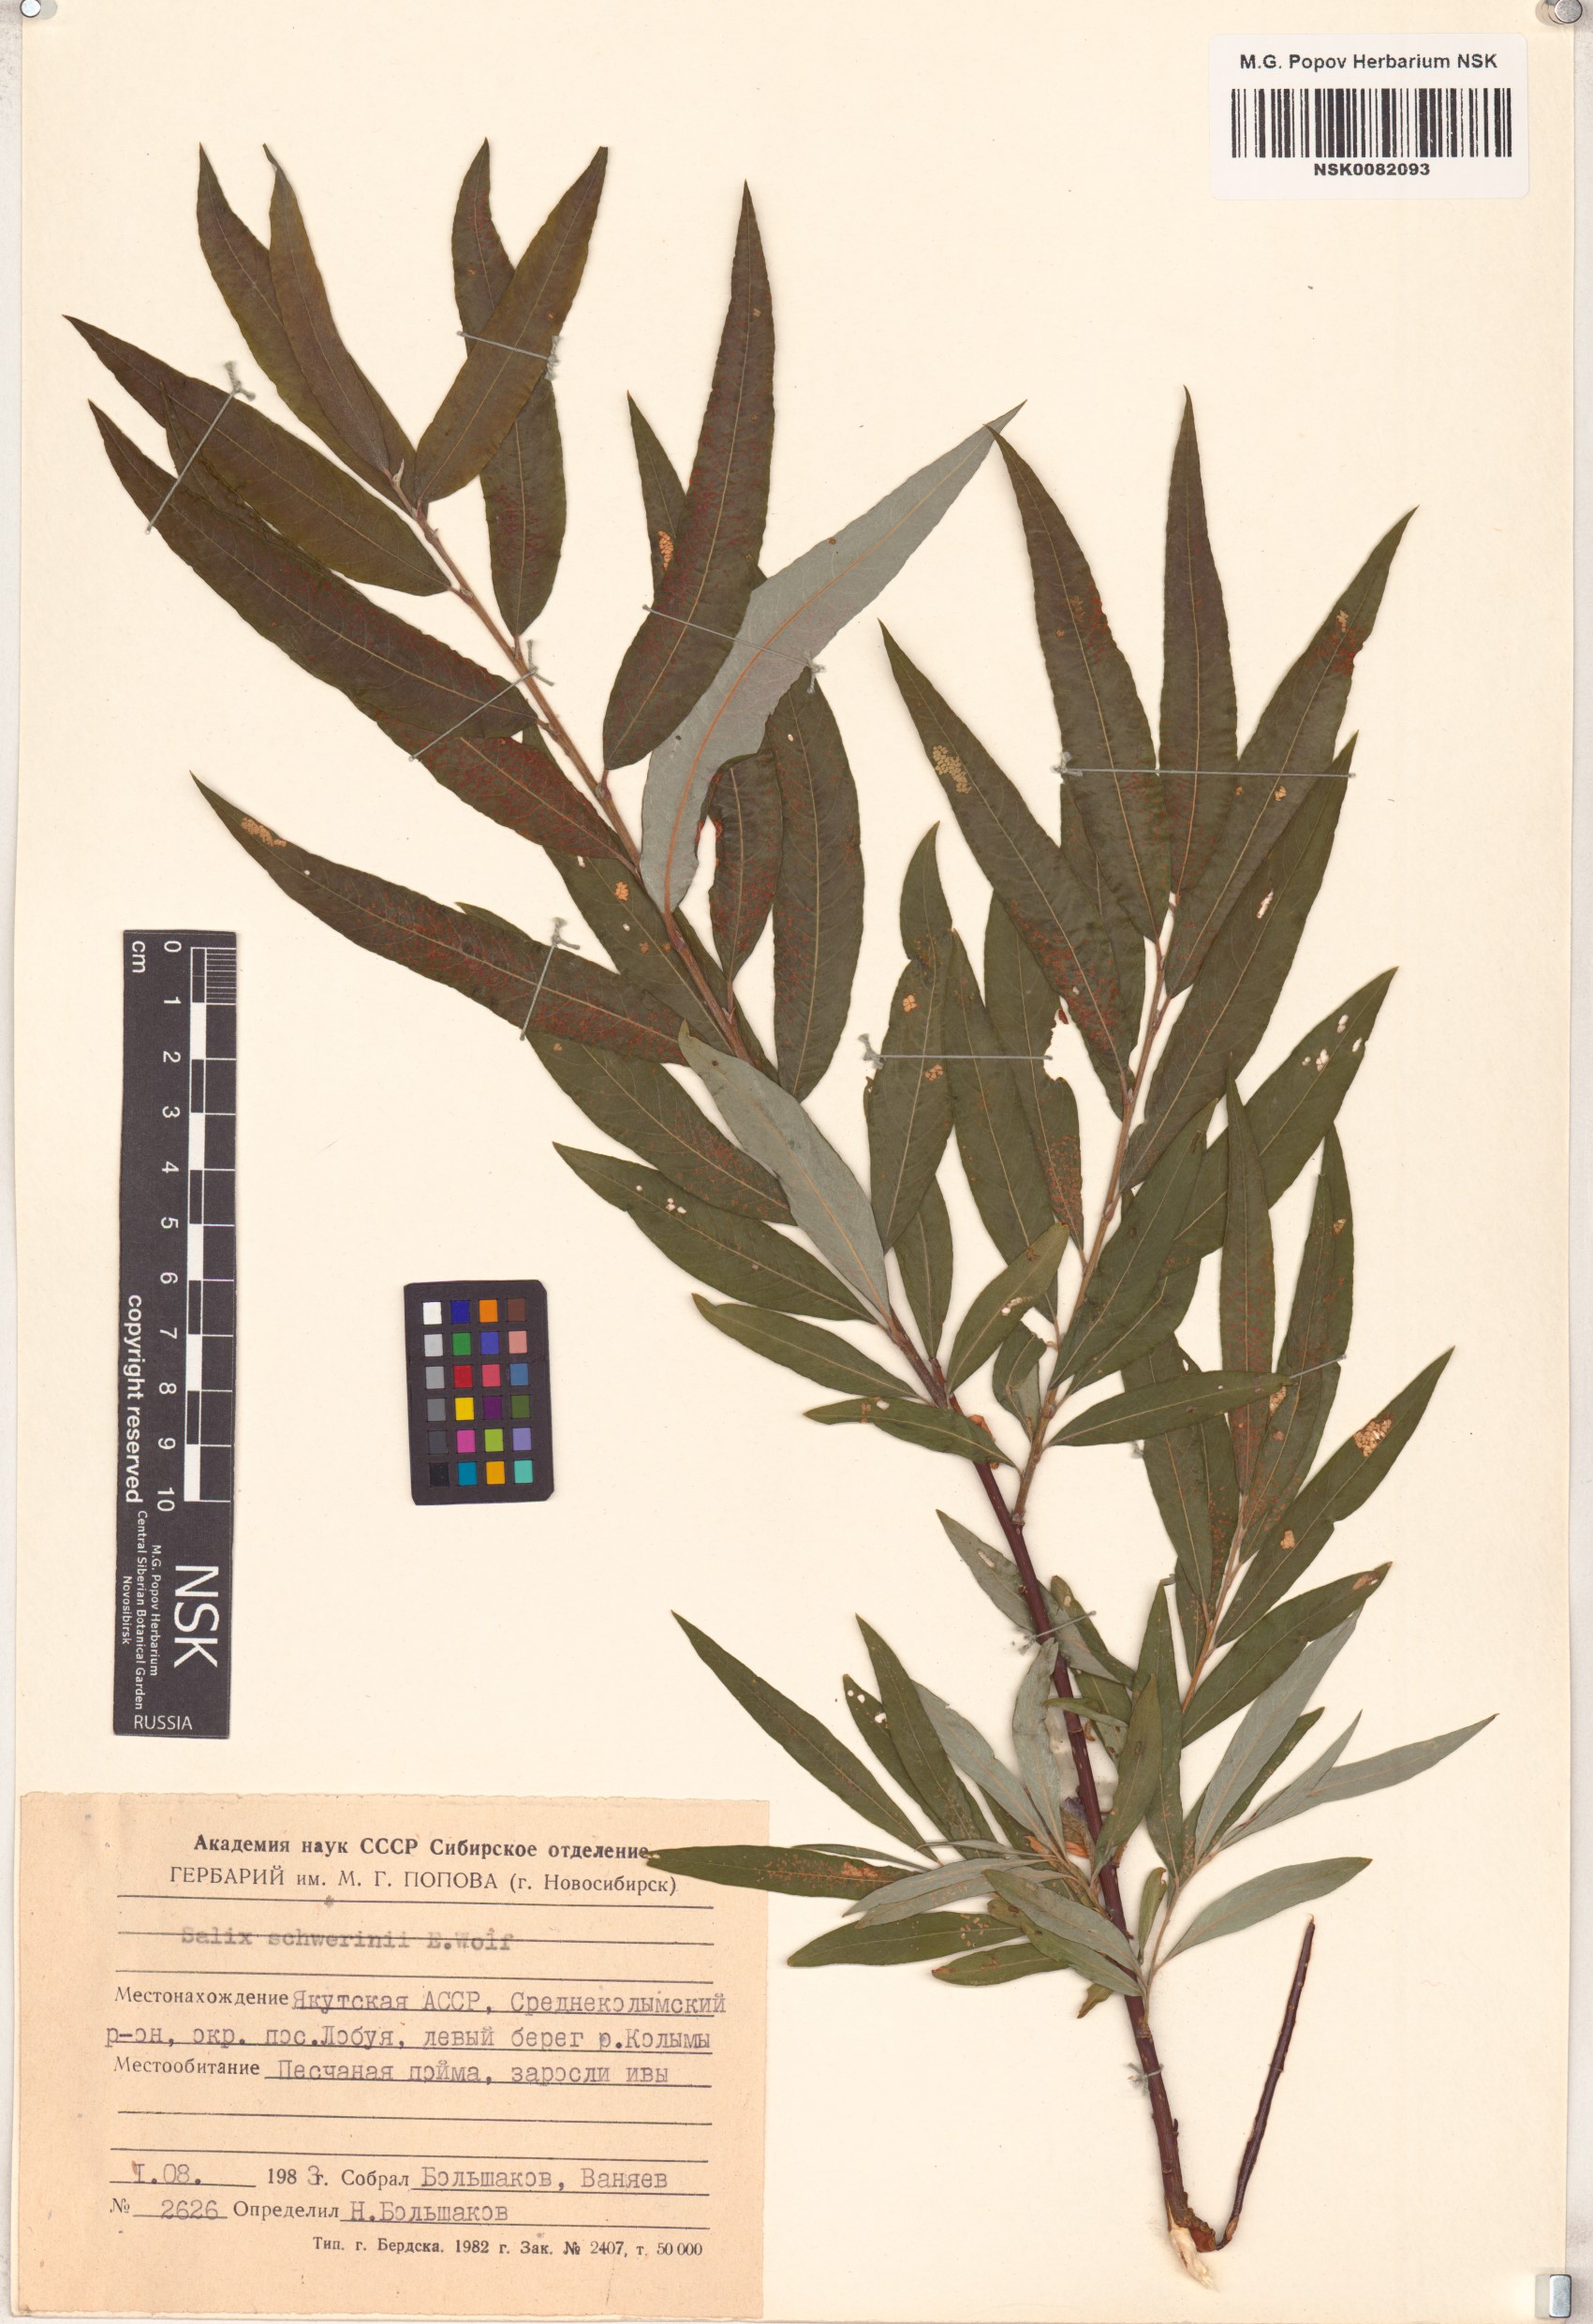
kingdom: Plantae
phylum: Tracheophyta
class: Magnoliopsida
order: Malpighiales
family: Salicaceae
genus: Salix
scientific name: Salix schwerinii
